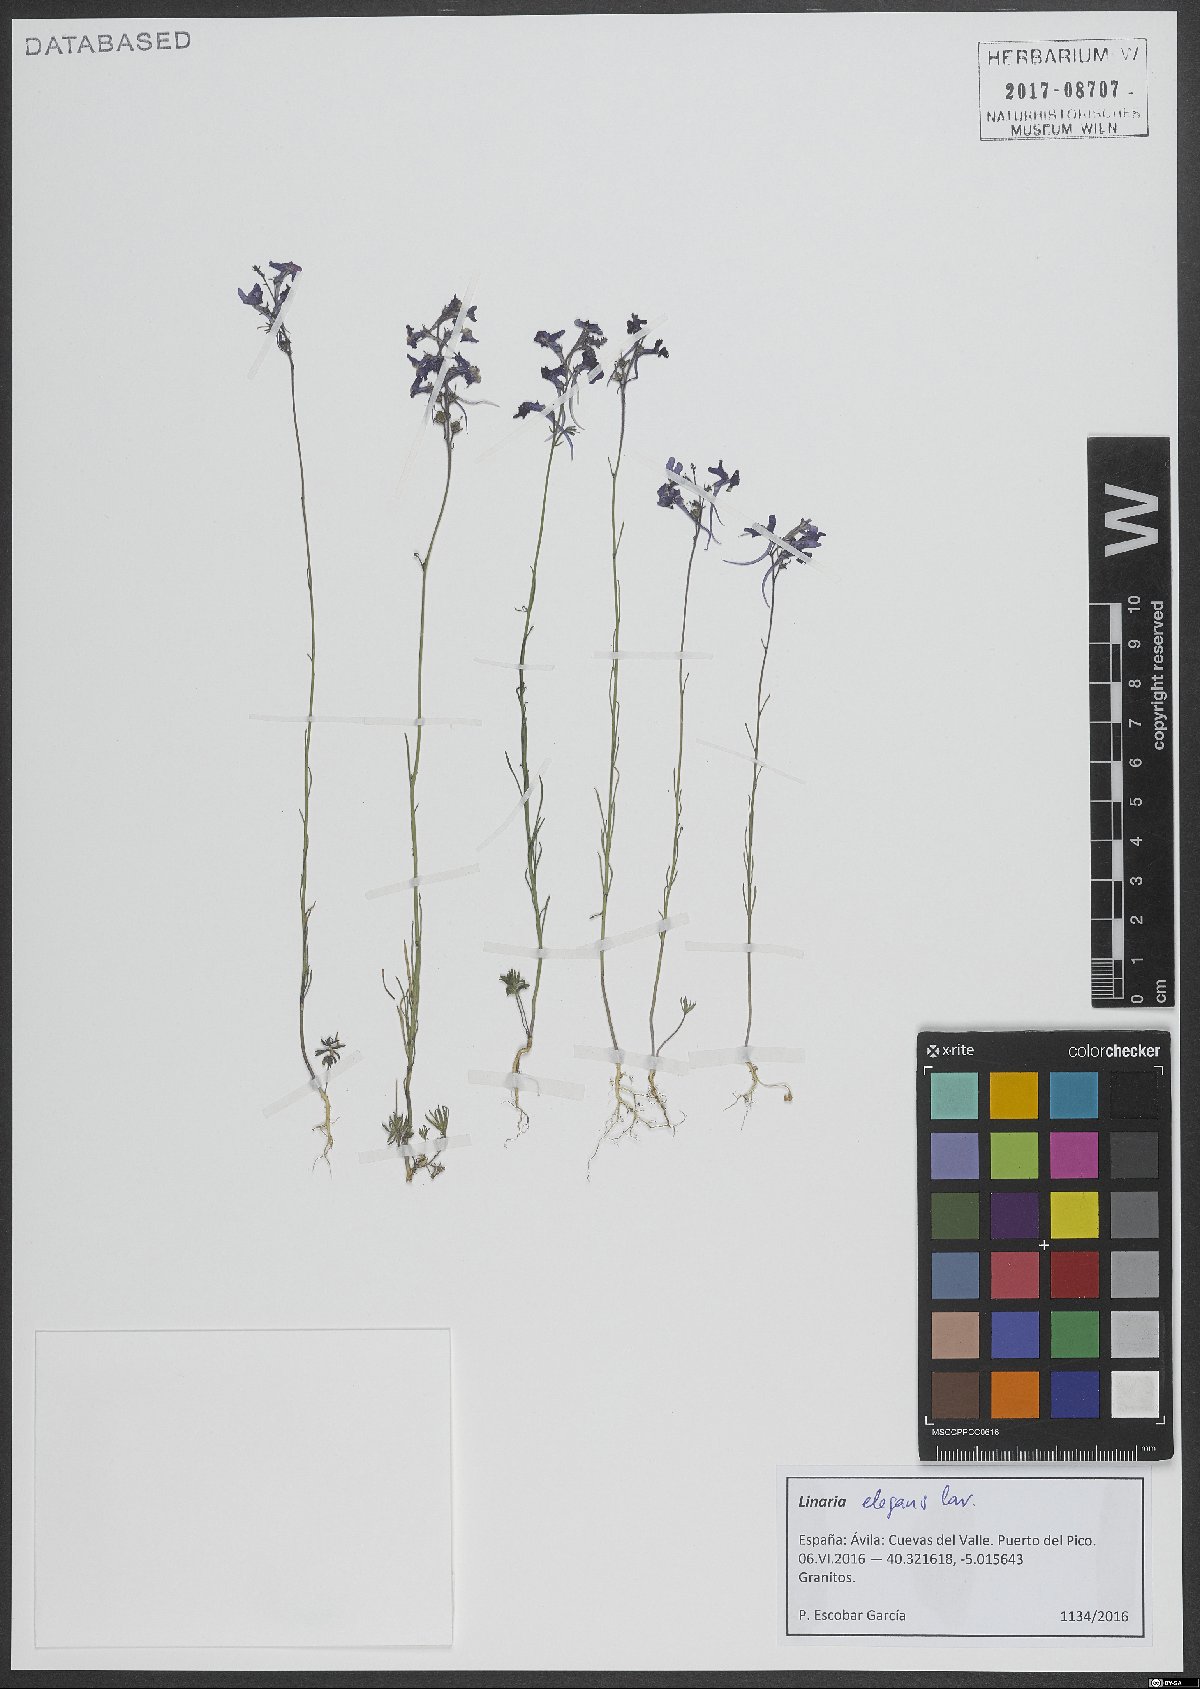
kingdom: Plantae
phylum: Tracheophyta
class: Magnoliopsida
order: Lamiales
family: Plantaginaceae
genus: Linaria
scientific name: Linaria elegans
